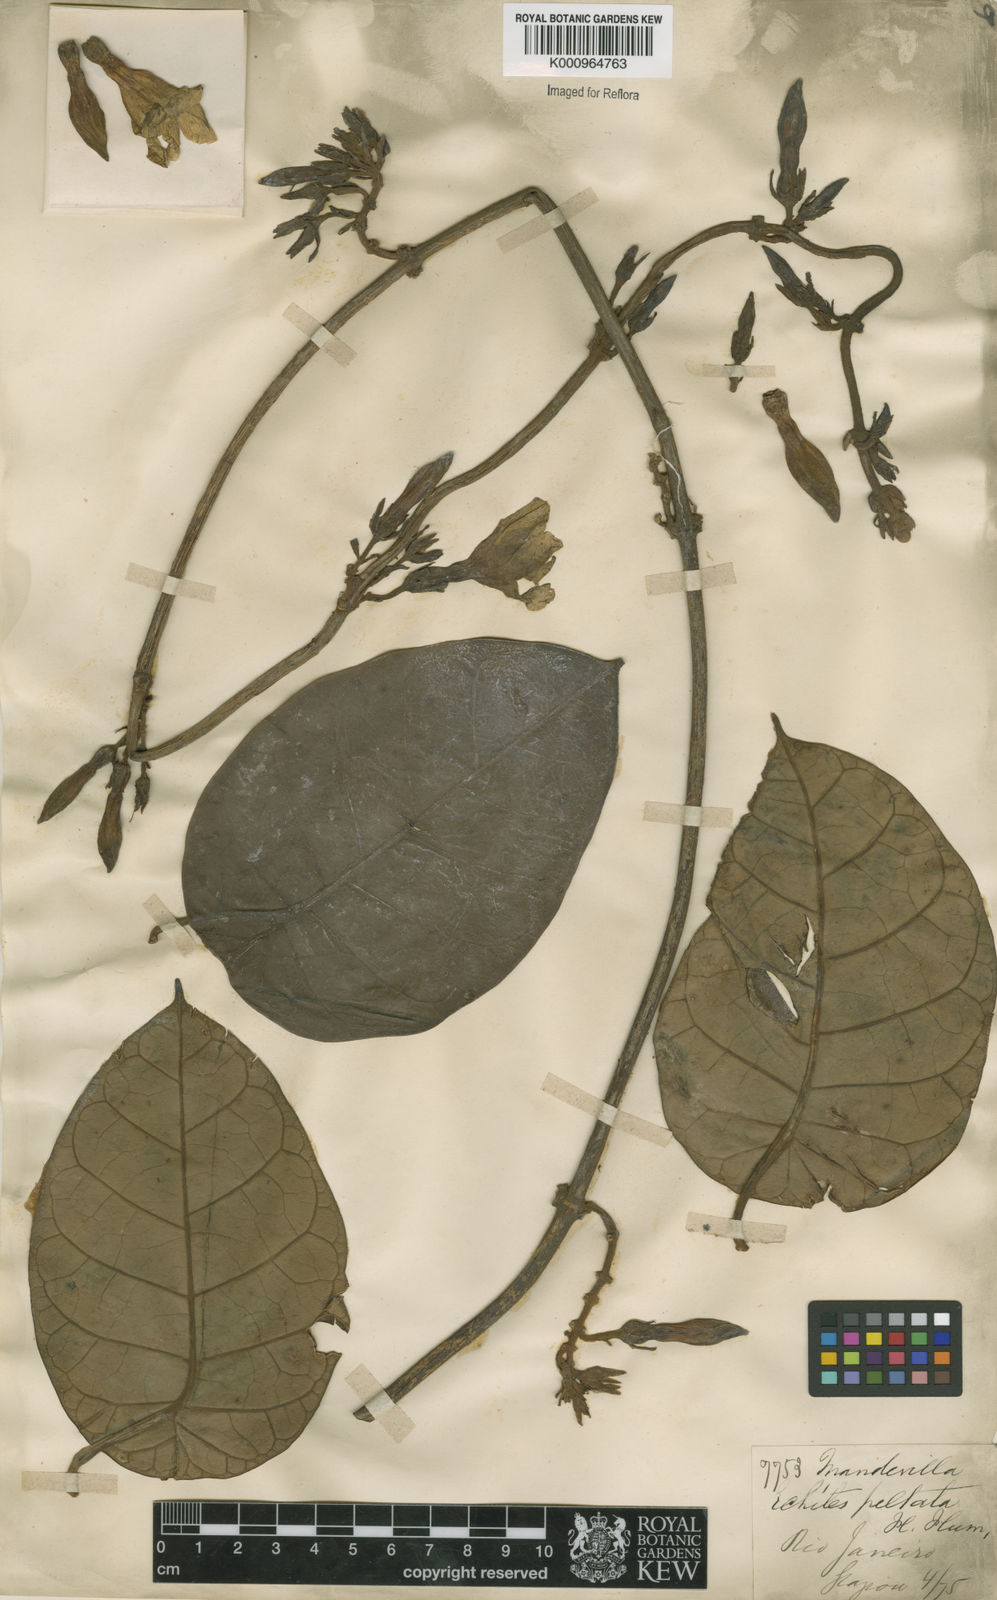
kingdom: Plantae
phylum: Tracheophyta
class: Magnoliopsida
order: Gentianales
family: Apocynaceae
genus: Macropharynx
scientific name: Macropharynx peltata
